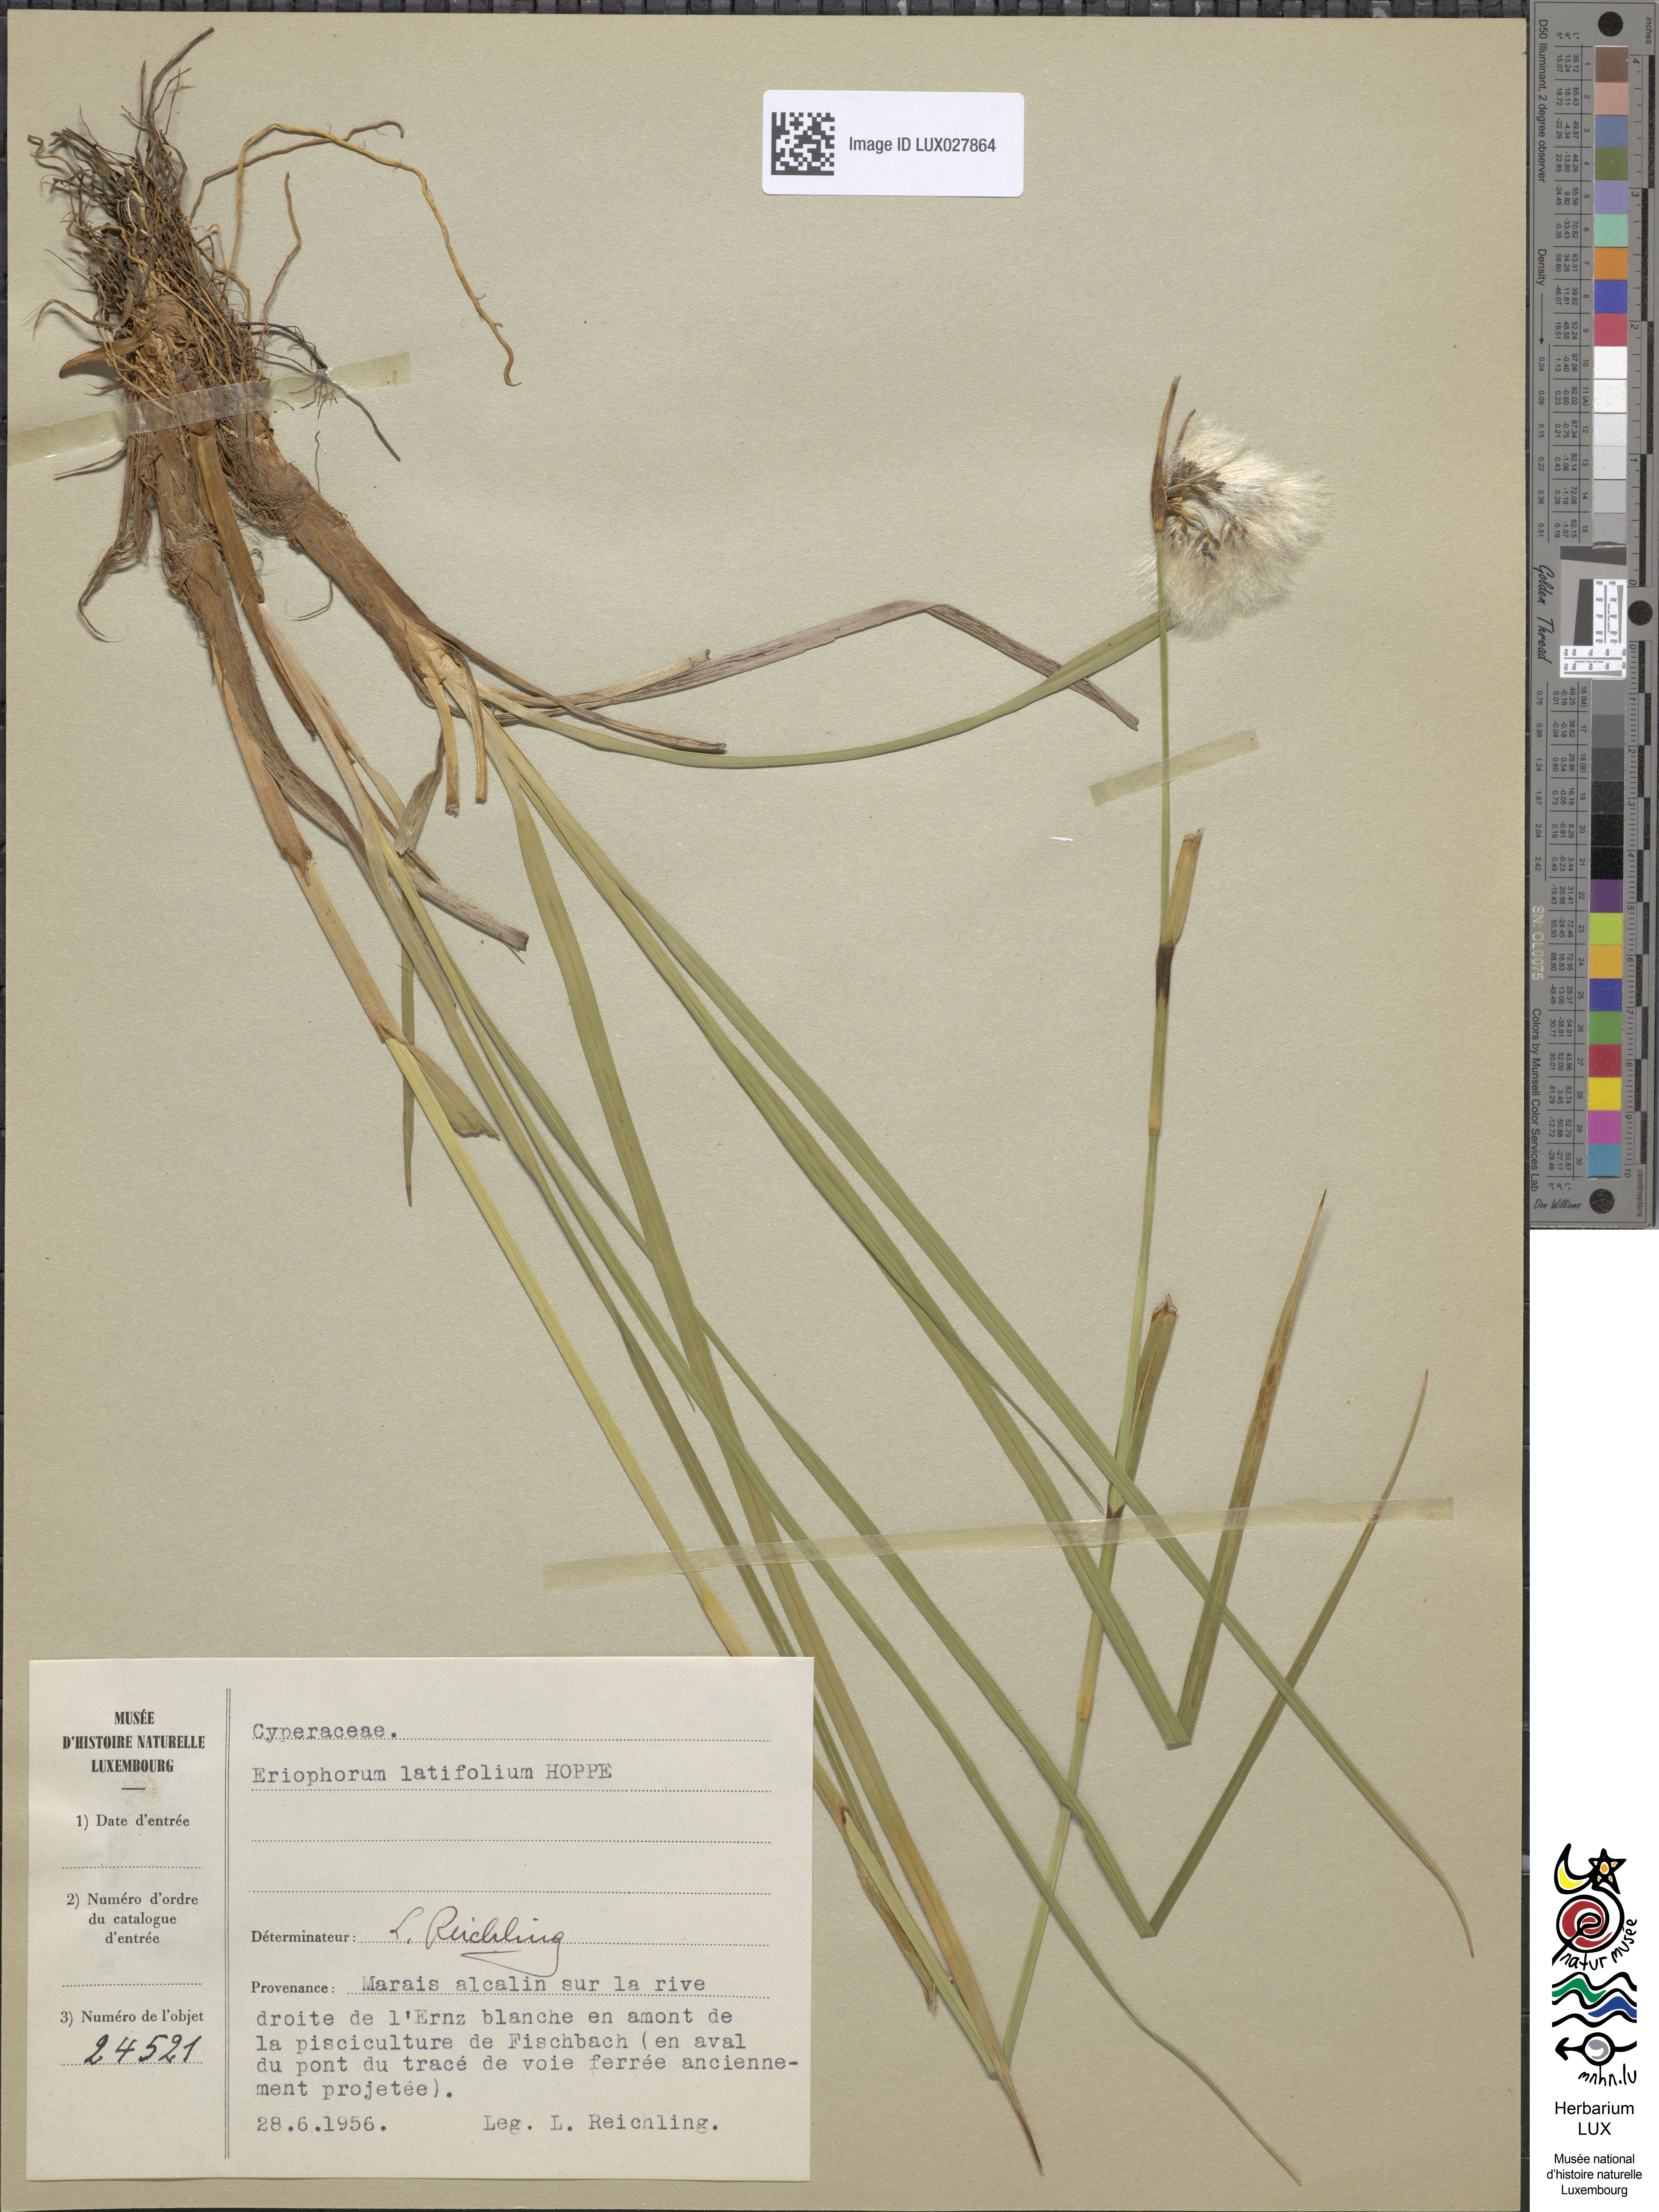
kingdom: Plantae
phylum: Tracheophyta
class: Liliopsida
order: Poales
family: Cyperaceae
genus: Eriophorum
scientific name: Eriophorum latifolium
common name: Broad-leaved cottongrass
